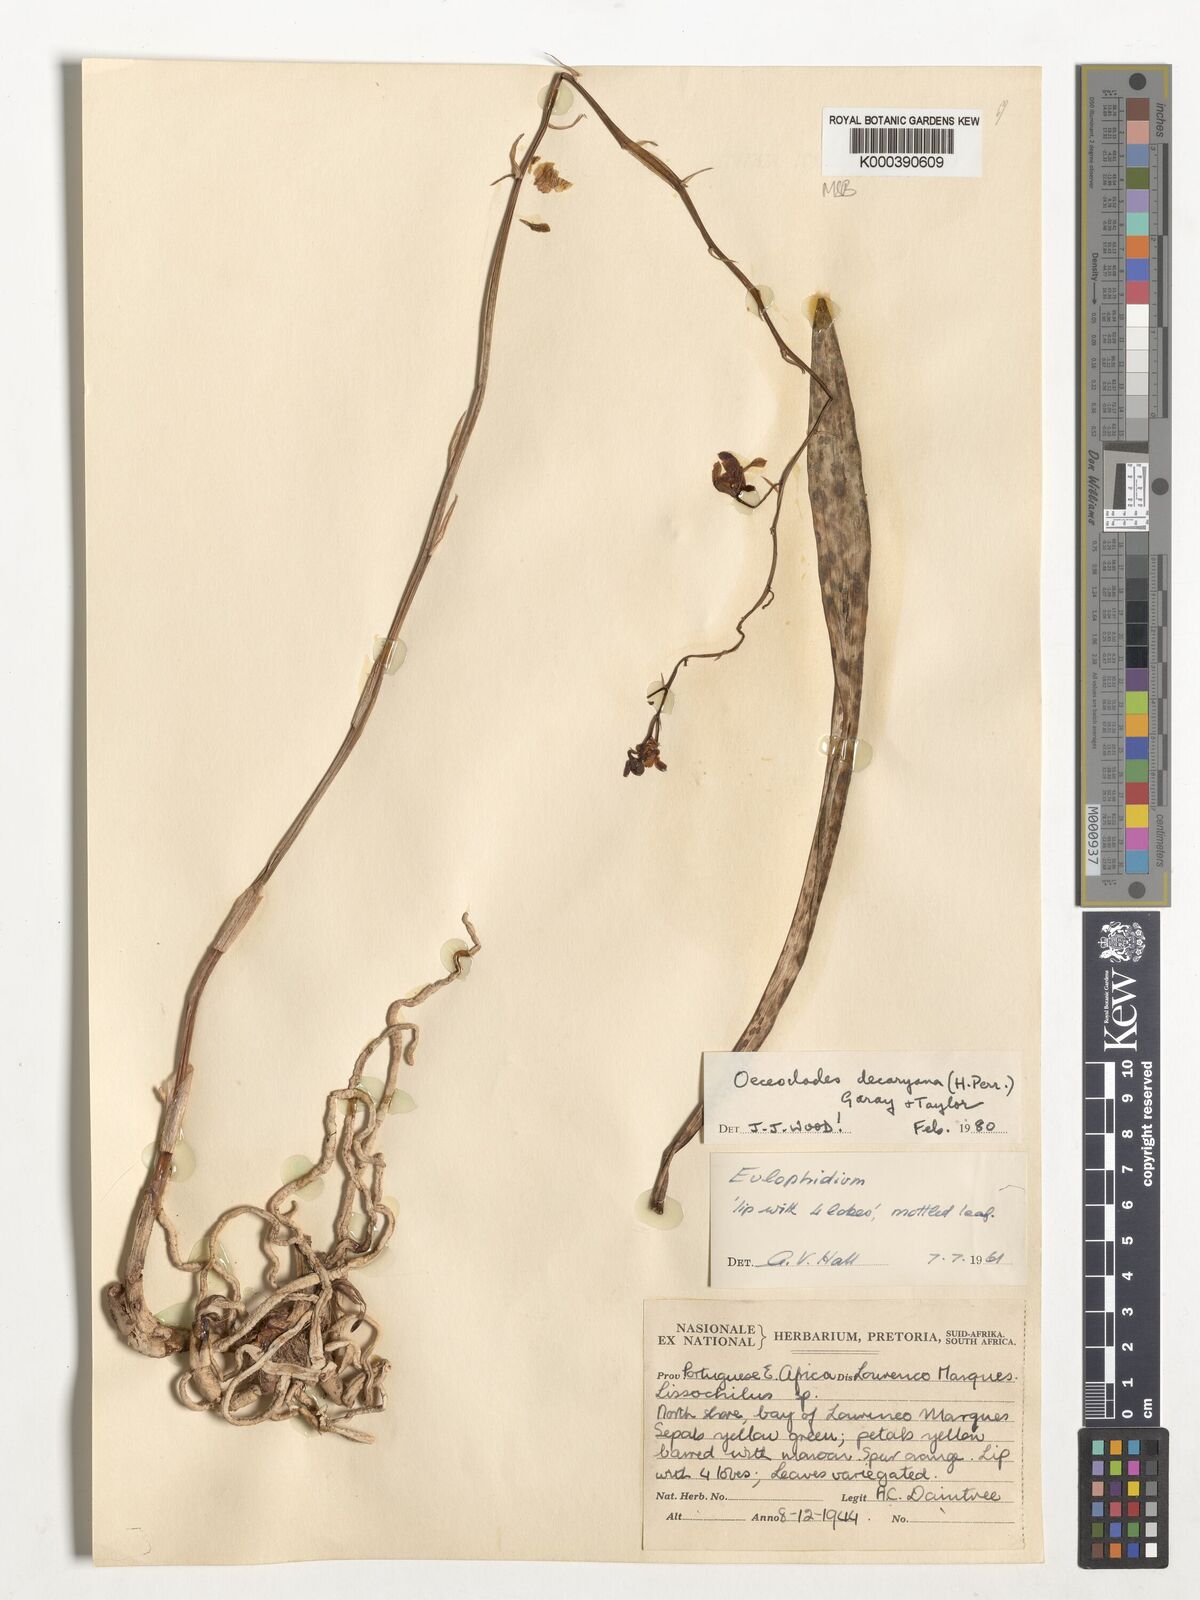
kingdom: Plantae
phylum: Tracheophyta
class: Liliopsida
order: Asparagales
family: Orchidaceae
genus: Eulophia
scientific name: Eulophia decaryana
